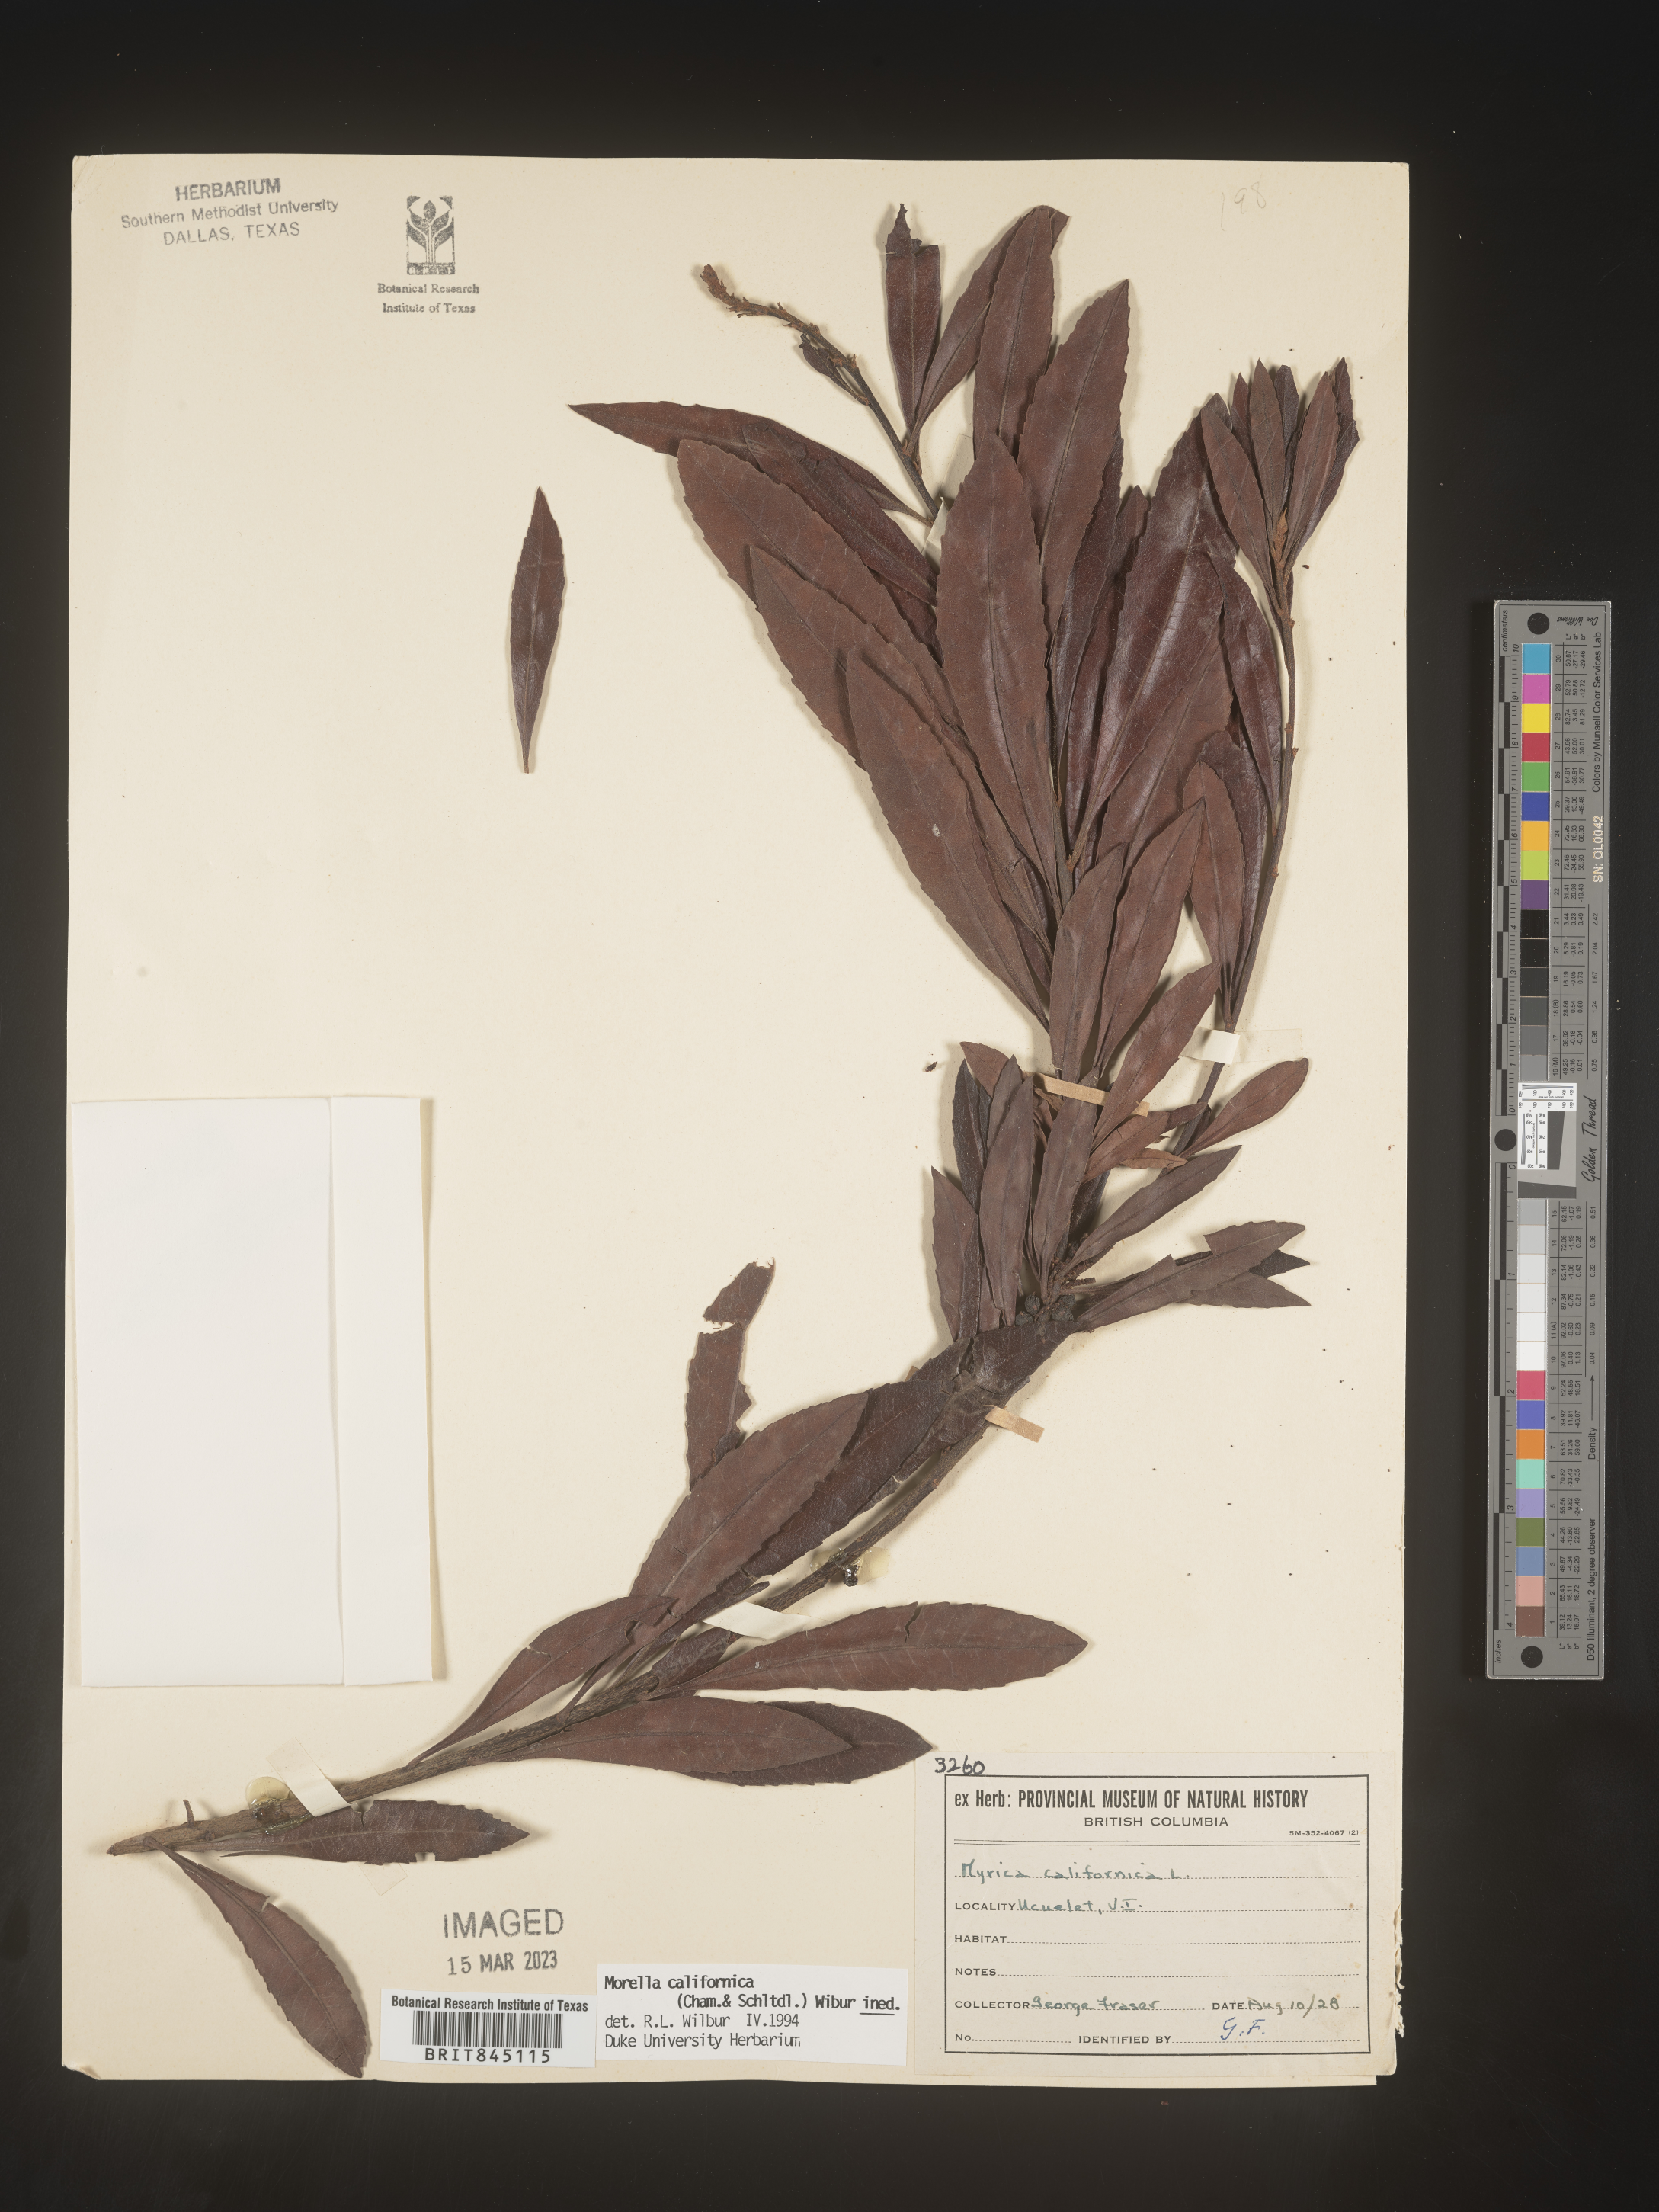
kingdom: Plantae
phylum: Tracheophyta
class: Magnoliopsida
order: Fagales
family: Myricaceae
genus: Morella
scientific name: Morella californica
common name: California wax-myrtle
